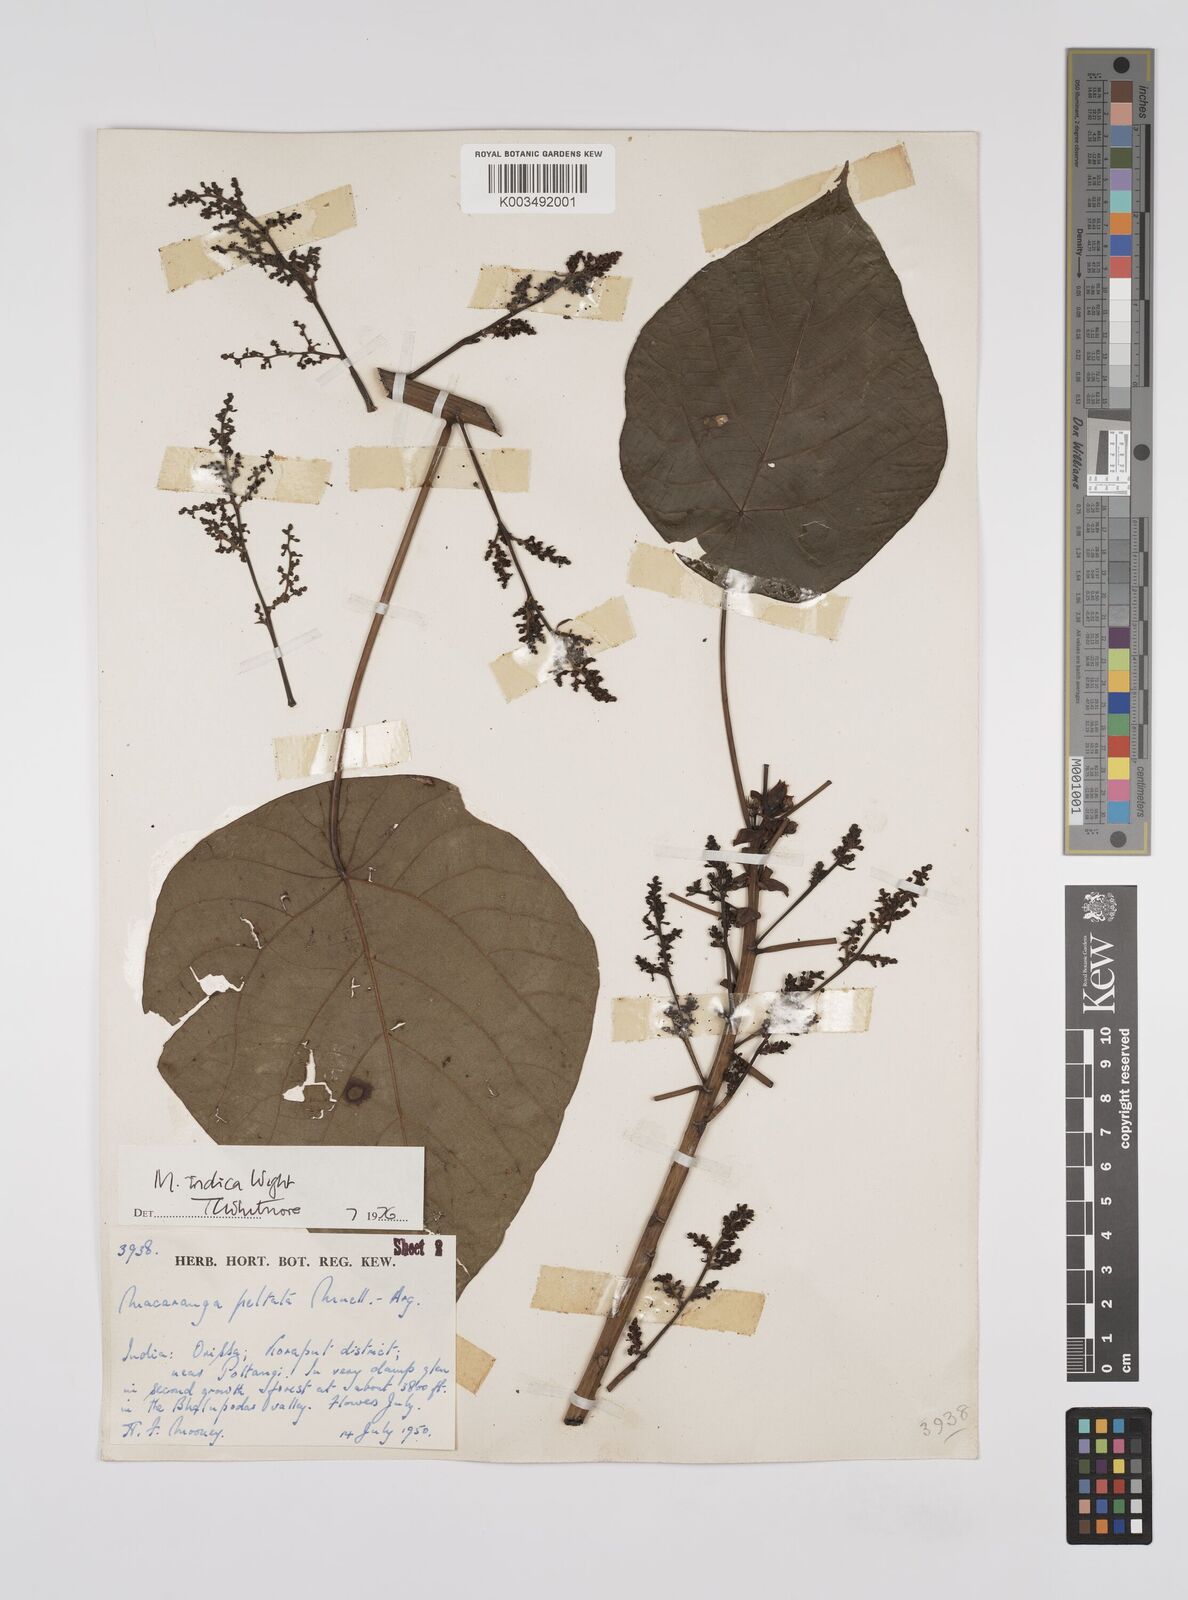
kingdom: Plantae
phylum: Tracheophyta
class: Magnoliopsida
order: Malpighiales
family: Euphorbiaceae
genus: Macaranga
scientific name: Macaranga indica
